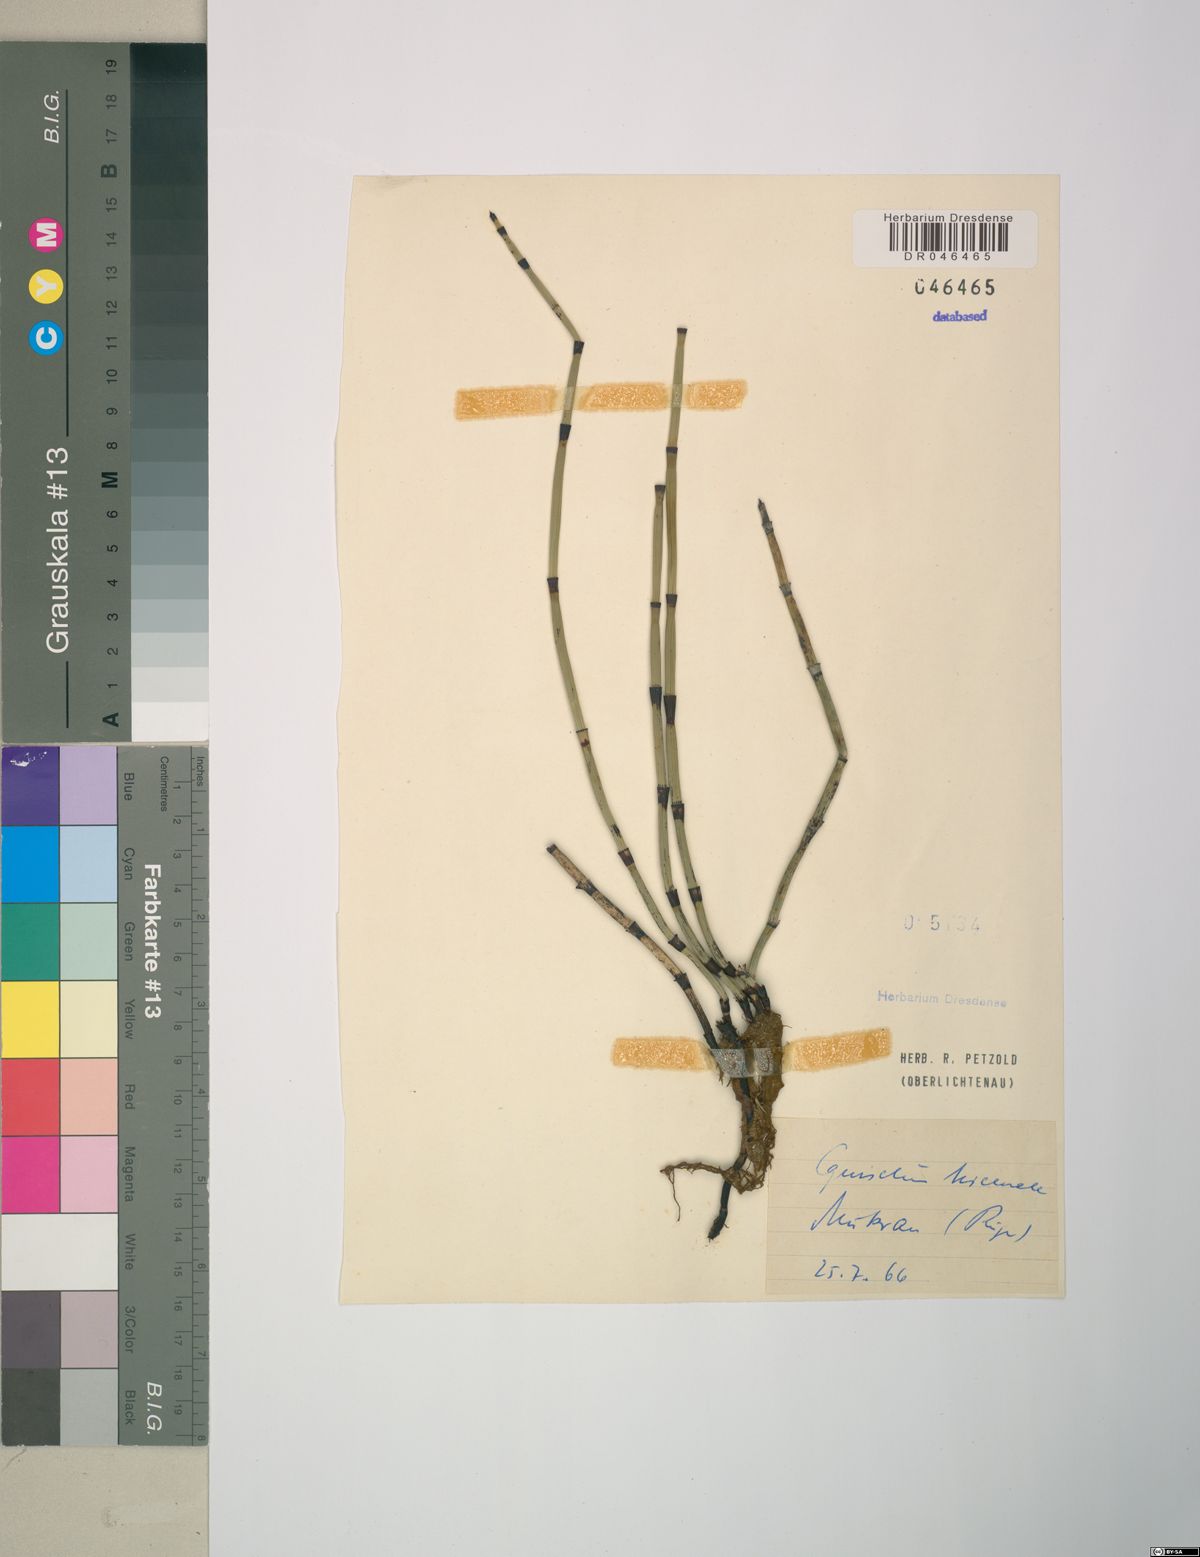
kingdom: Plantae
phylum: Tracheophyta
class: Polypodiopsida
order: Equisetales
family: Equisetaceae
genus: Equisetum
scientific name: Equisetum hyemale
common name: Rough horsetail
